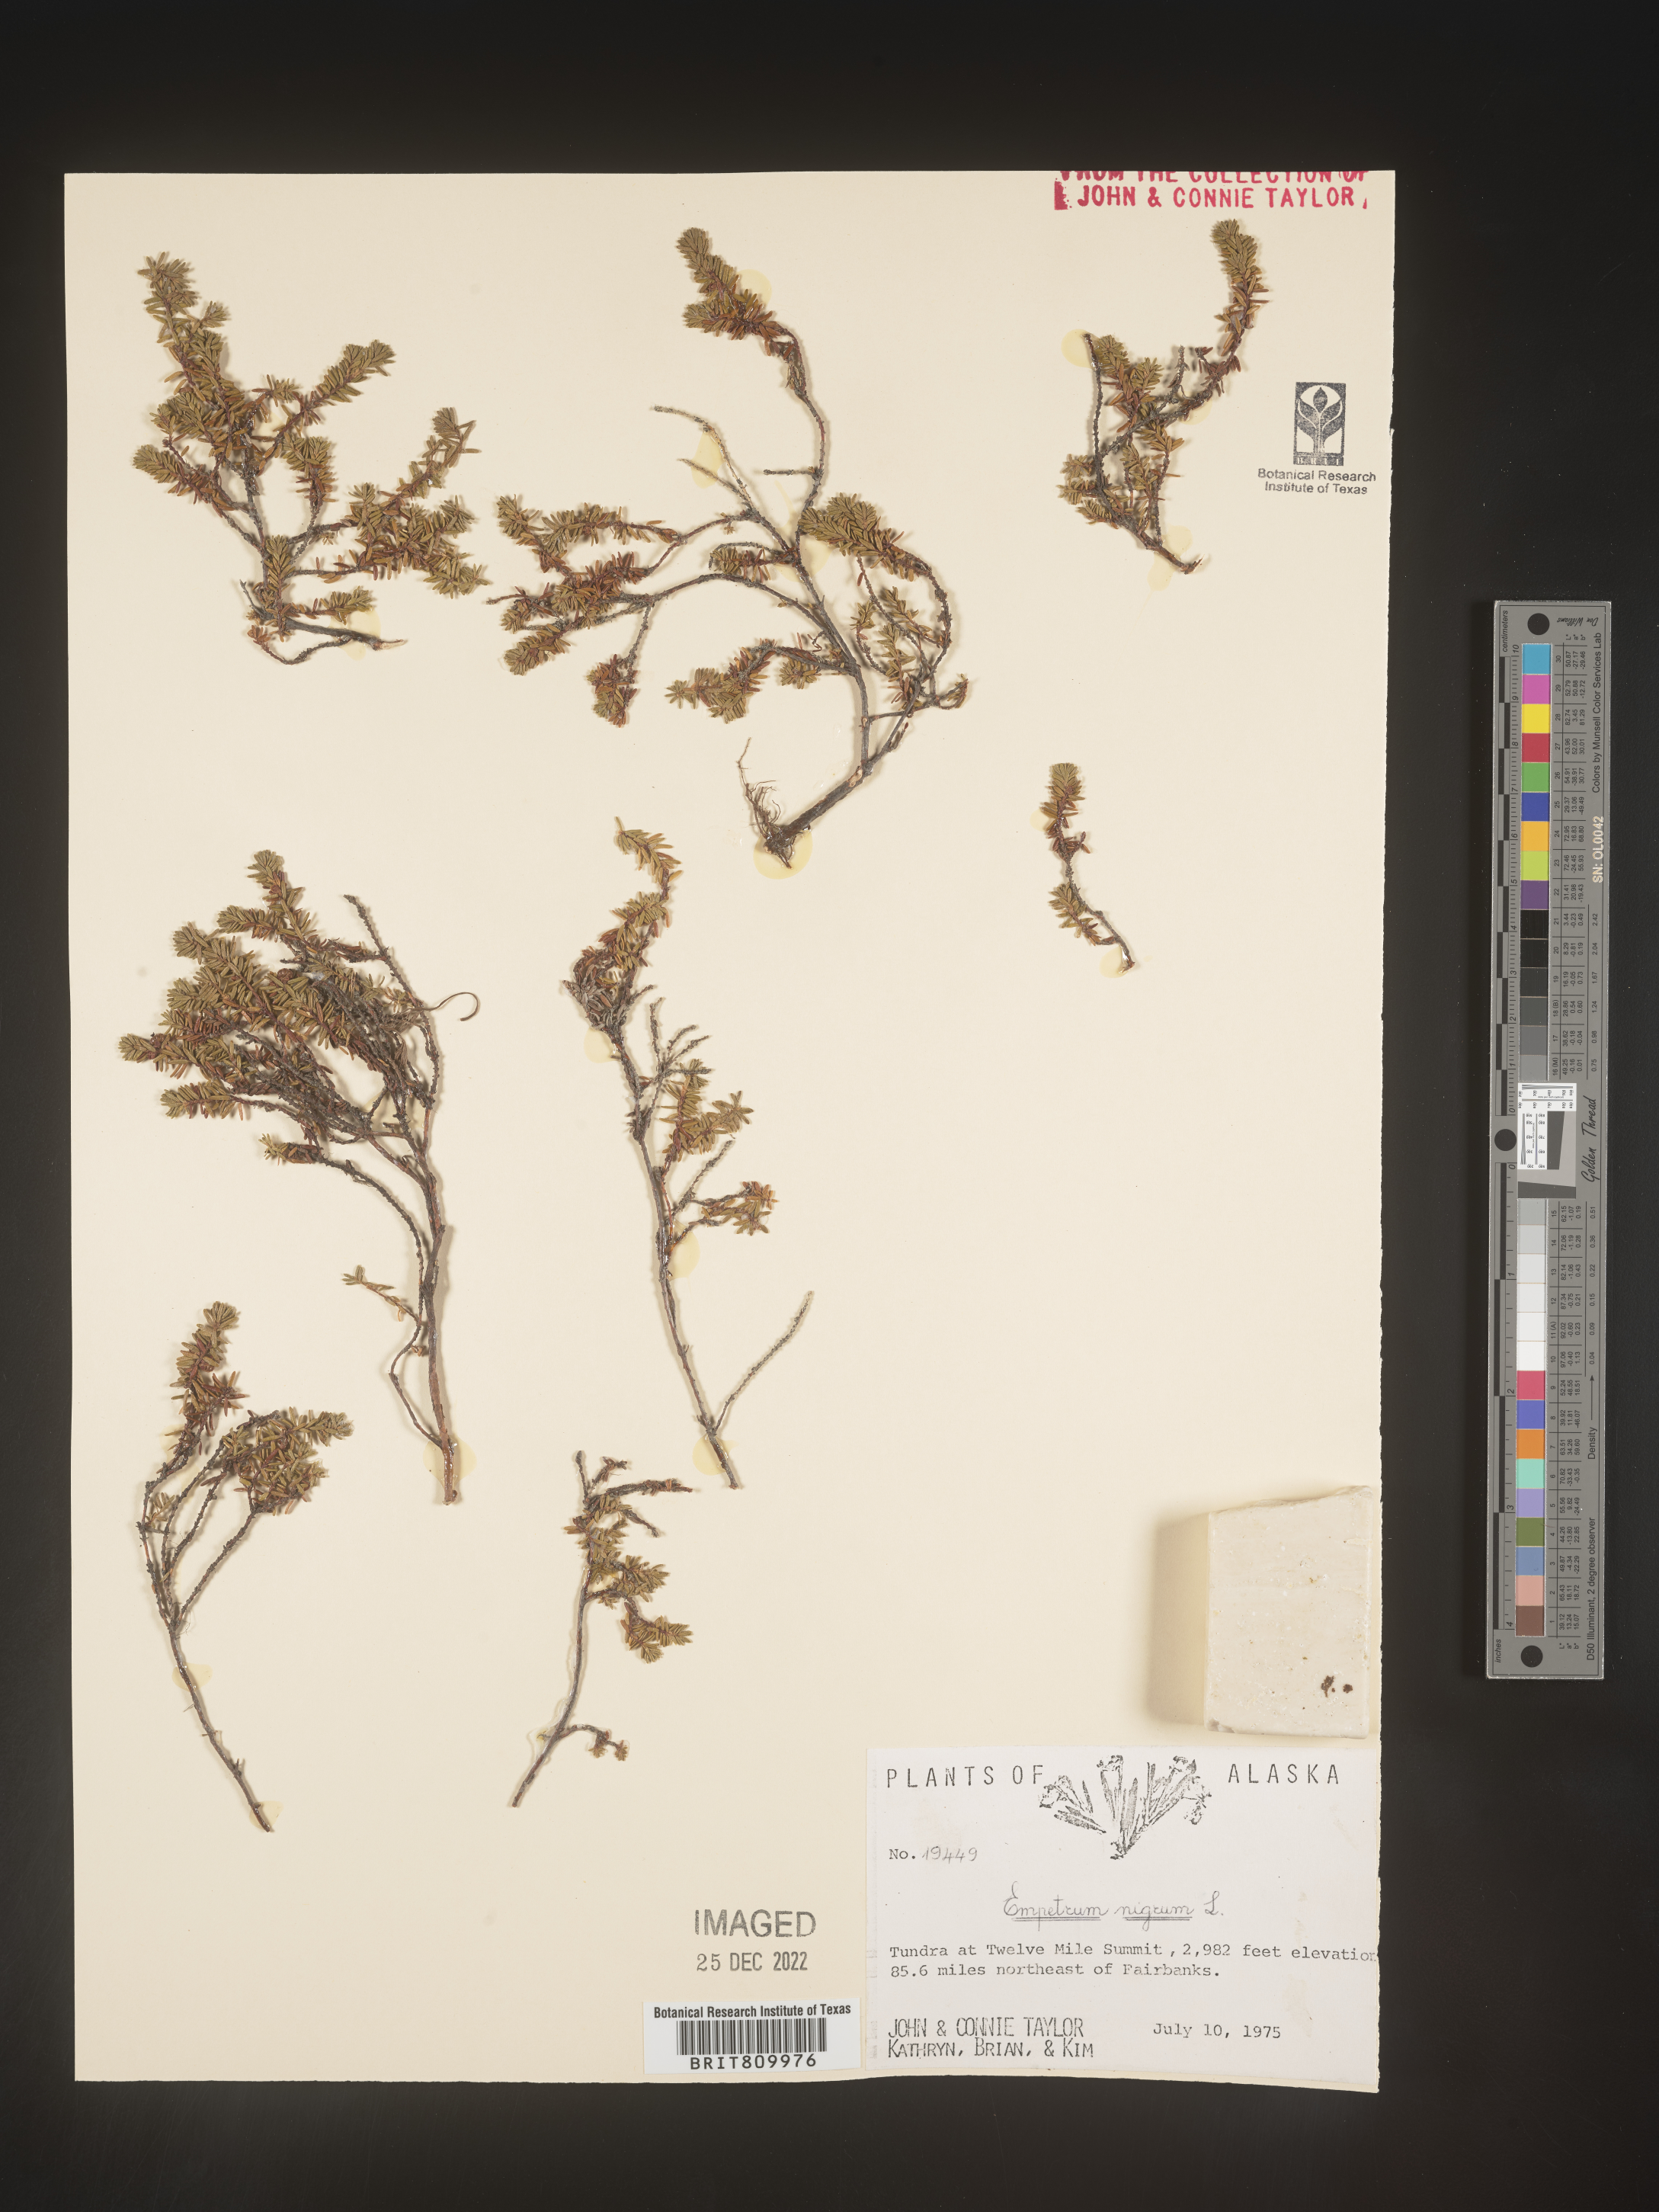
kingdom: Plantae
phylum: Tracheophyta
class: Magnoliopsida
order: Ericales
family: Ericaceae
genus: Empetrum
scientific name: Empetrum
